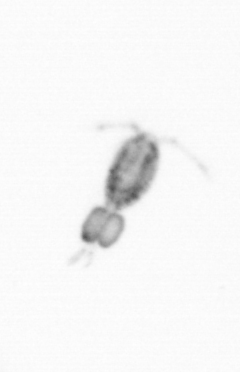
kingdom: Animalia
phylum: Arthropoda
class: Copepoda
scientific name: Copepoda
